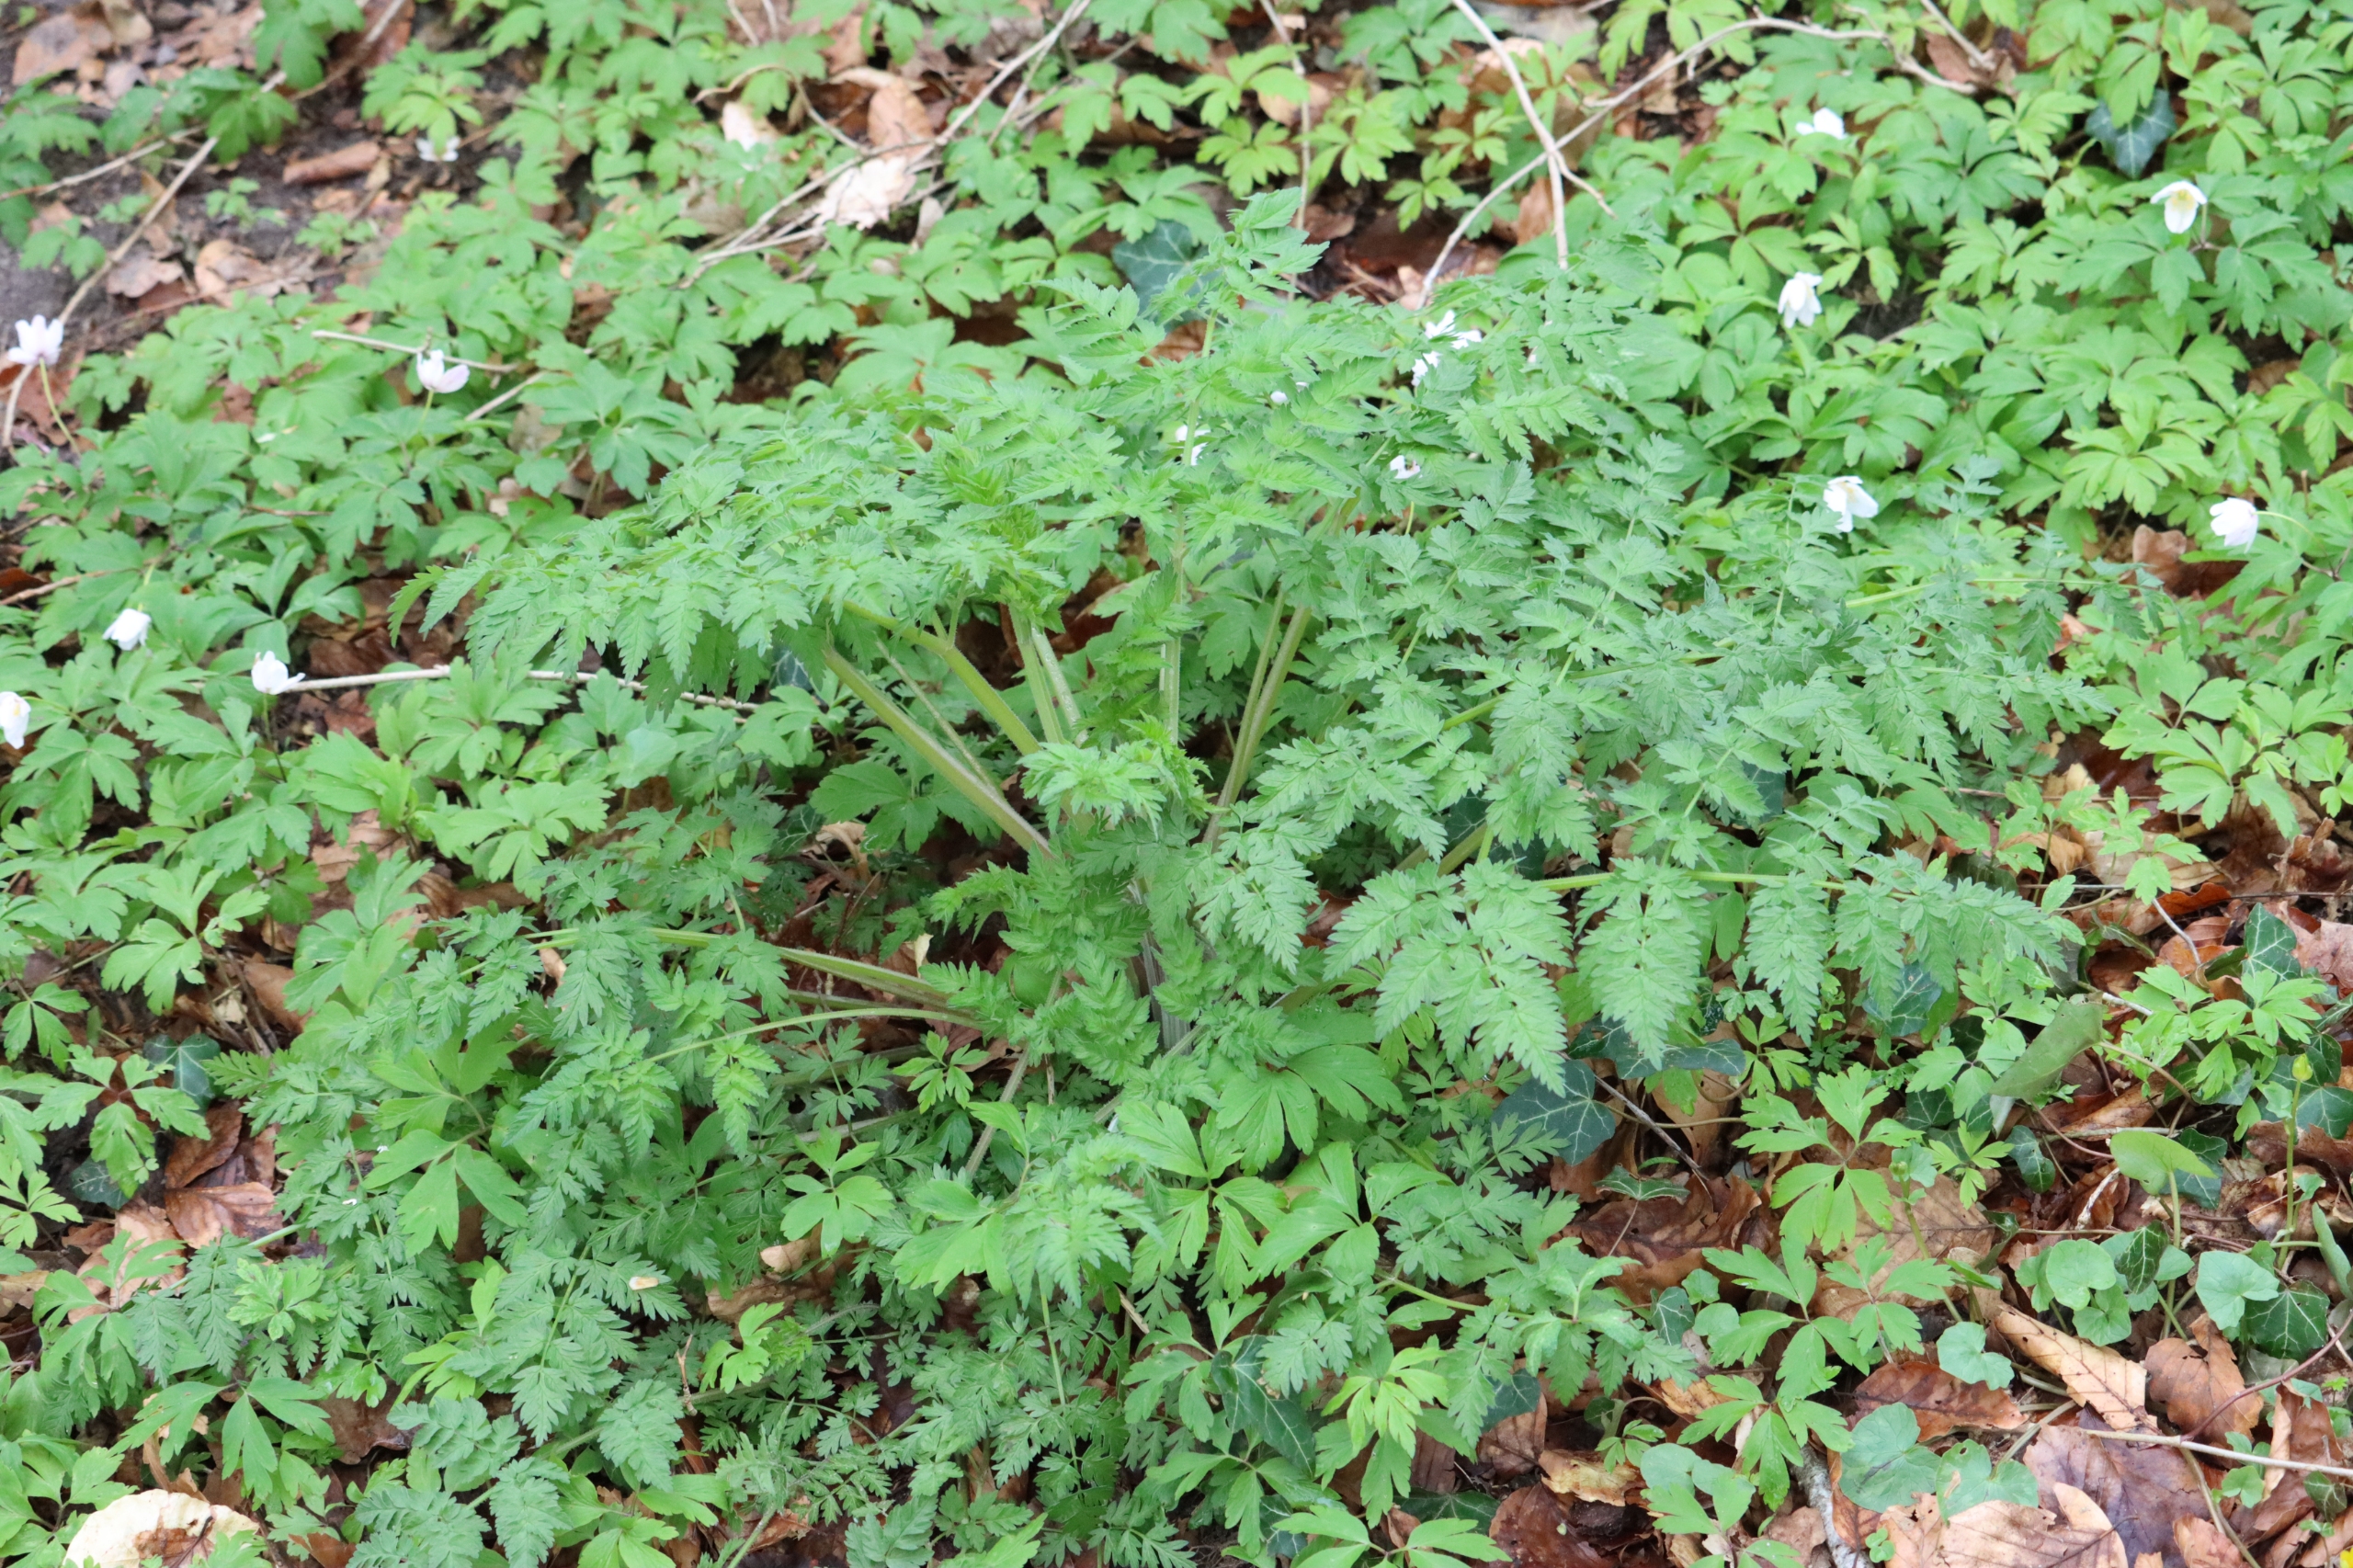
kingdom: Plantae
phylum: Tracheophyta
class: Magnoliopsida
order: Apiales
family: Apiaceae
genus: Anthriscus
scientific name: Anthriscus sylvestris
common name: Vild kørvel
